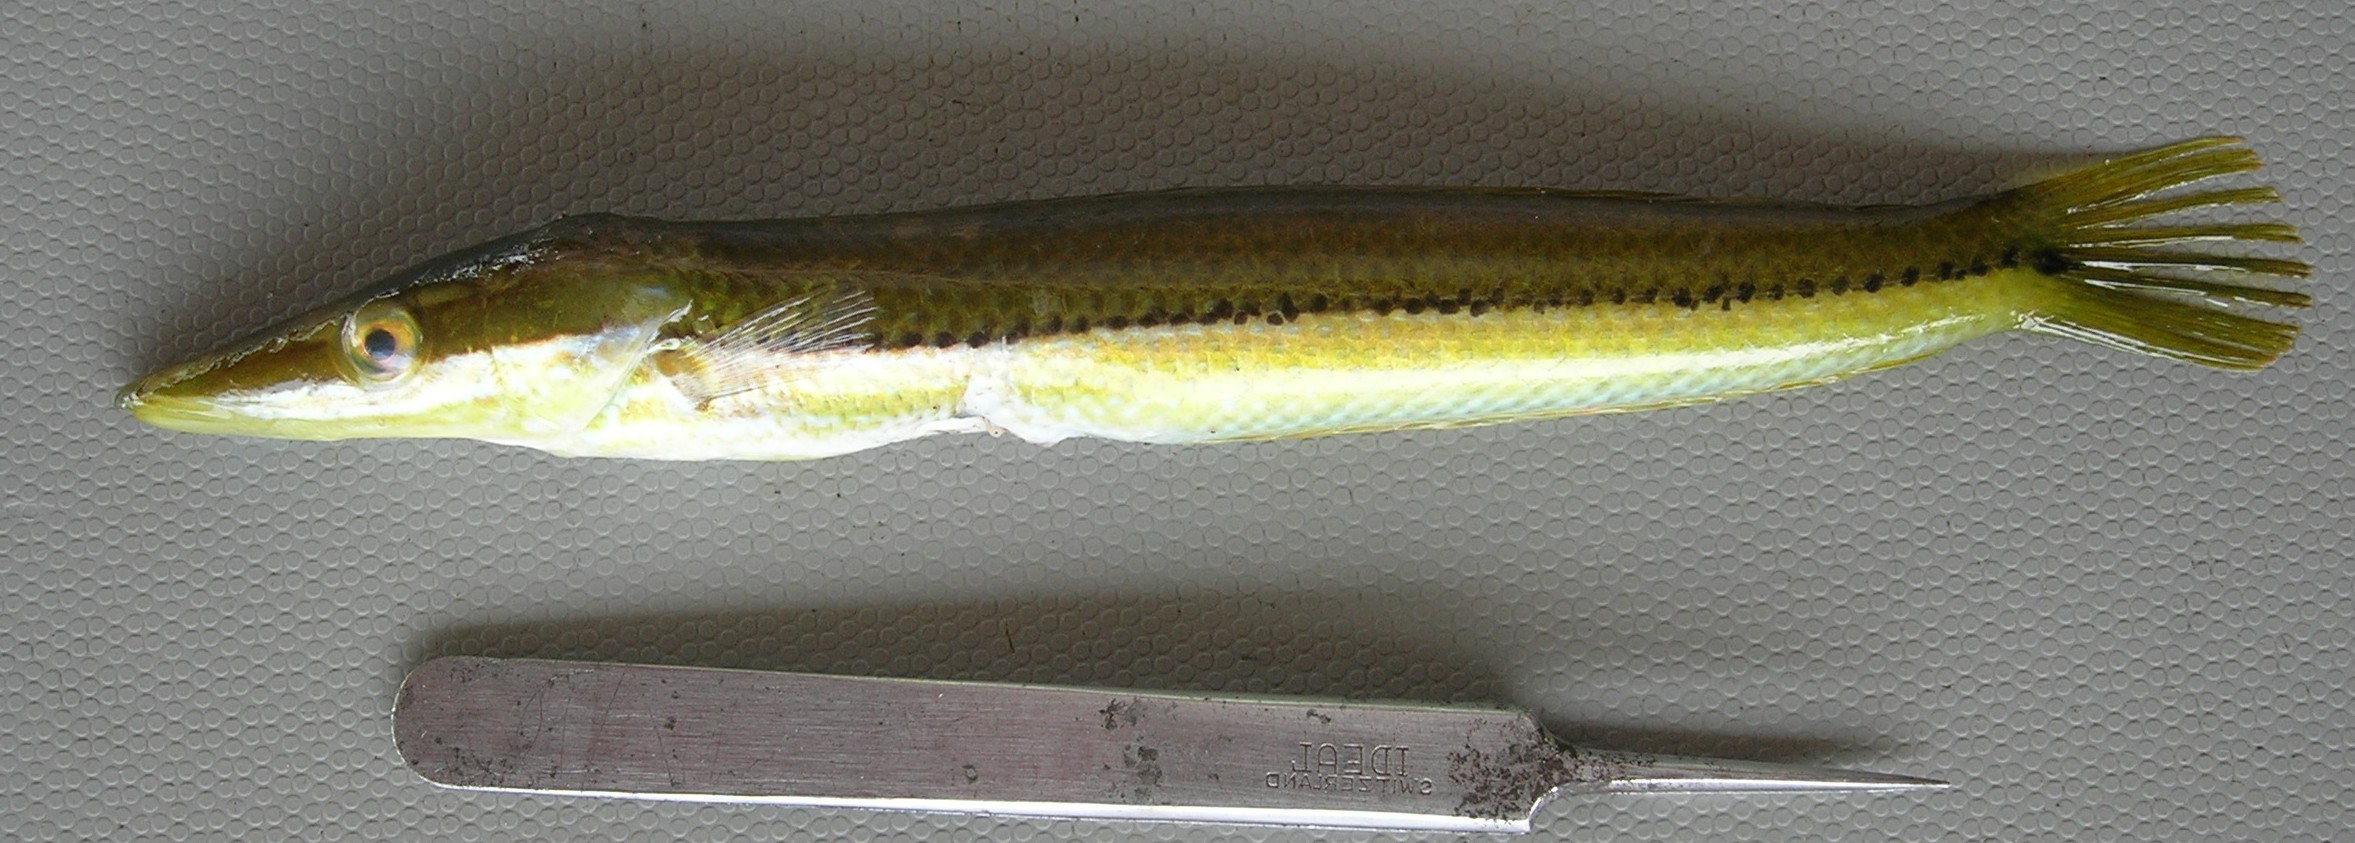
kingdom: Animalia
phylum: Chordata
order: Perciformes
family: Labridae
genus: Cheilio
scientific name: Cheilio inermis
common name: Cigar wrasse
